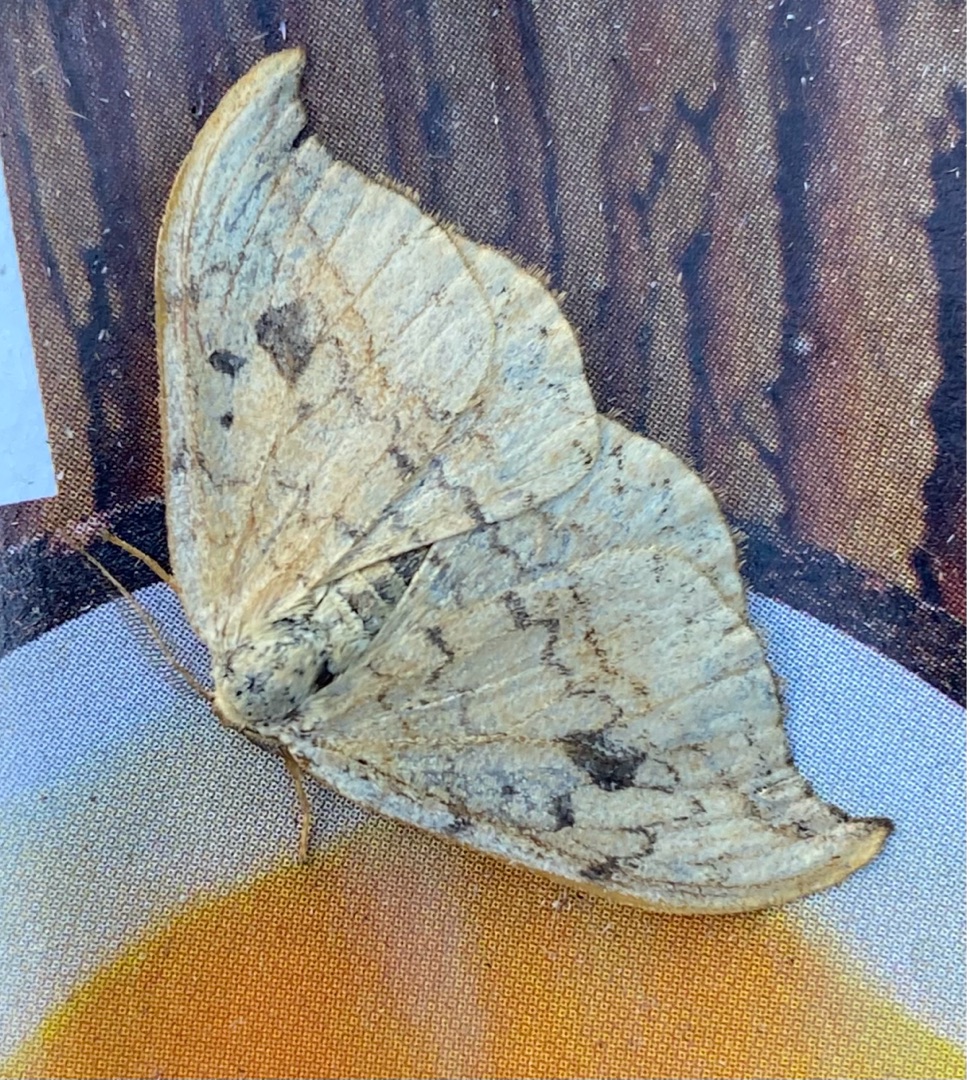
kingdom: Animalia
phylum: Arthropoda
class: Insecta
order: Lepidoptera
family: Drepanidae
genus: Drepana
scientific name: Drepana falcataria
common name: Birkeseglvinge
